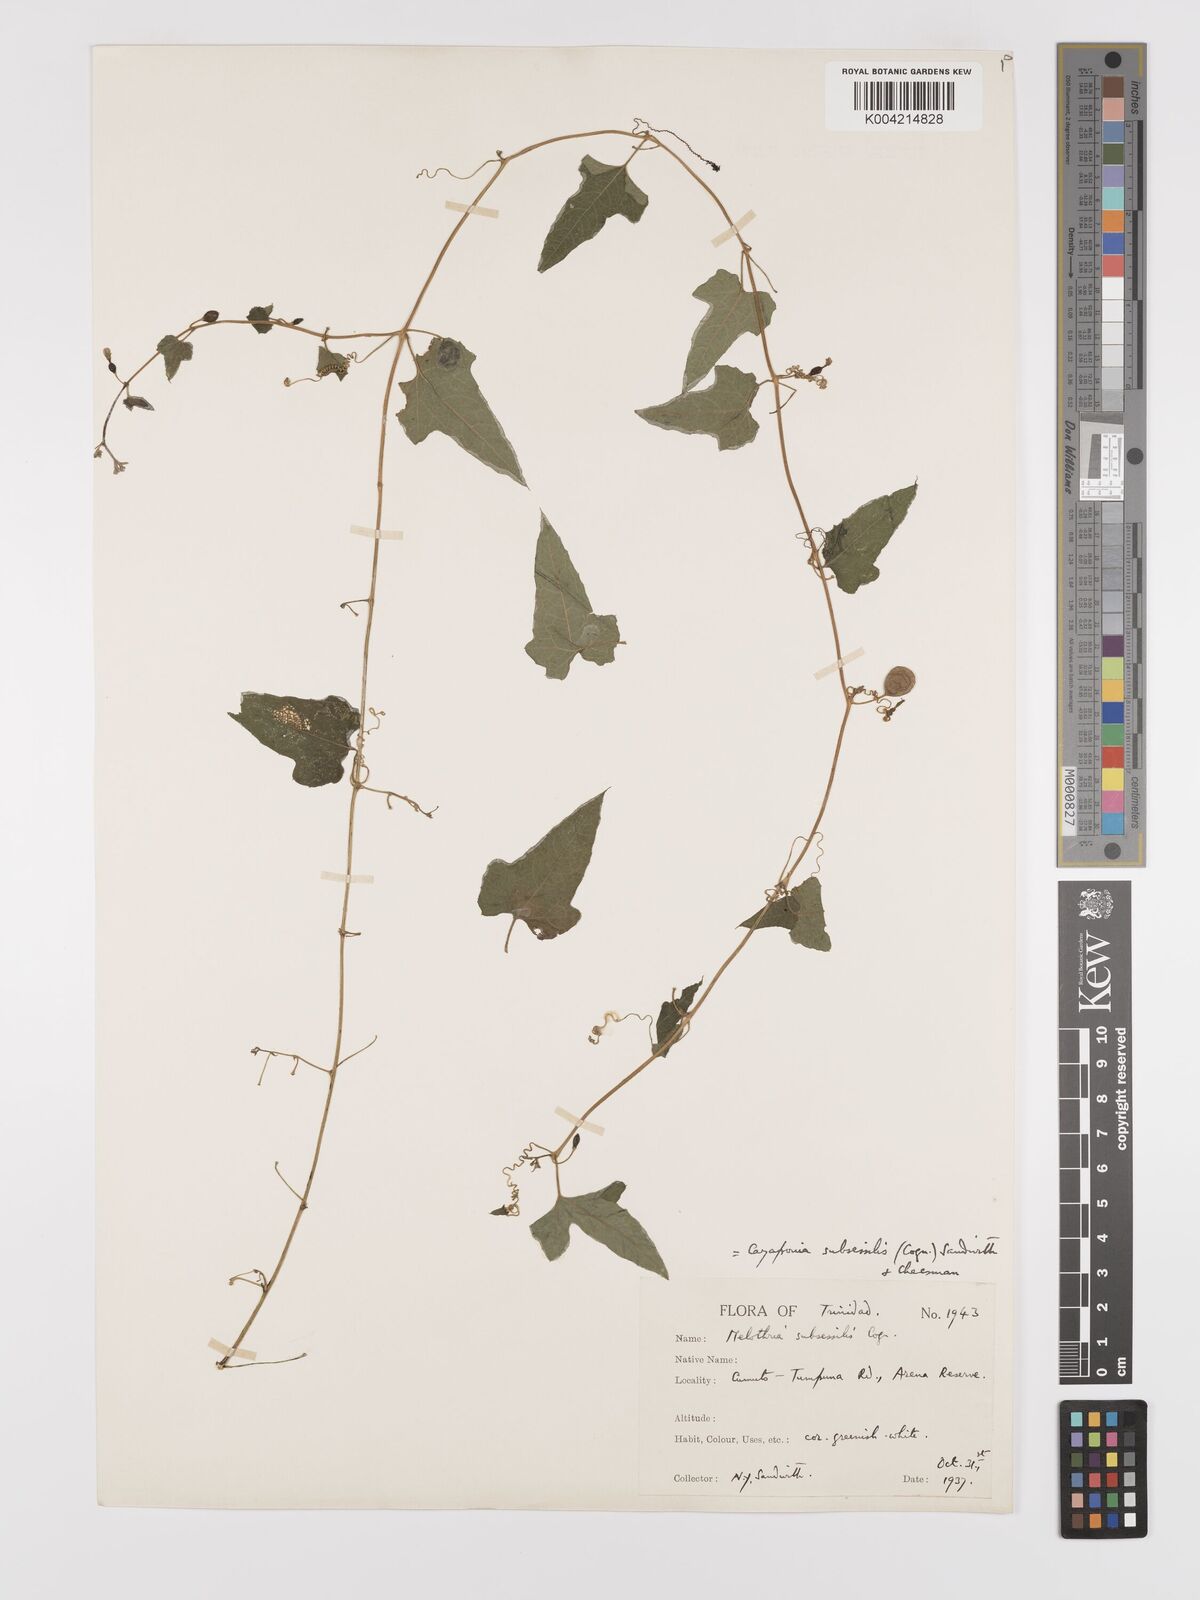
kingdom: Plantae
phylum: Tracheophyta
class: Magnoliopsida
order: Cucurbitales
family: Cucurbitaceae
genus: Cayaponia
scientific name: Cayaponia triangularis
